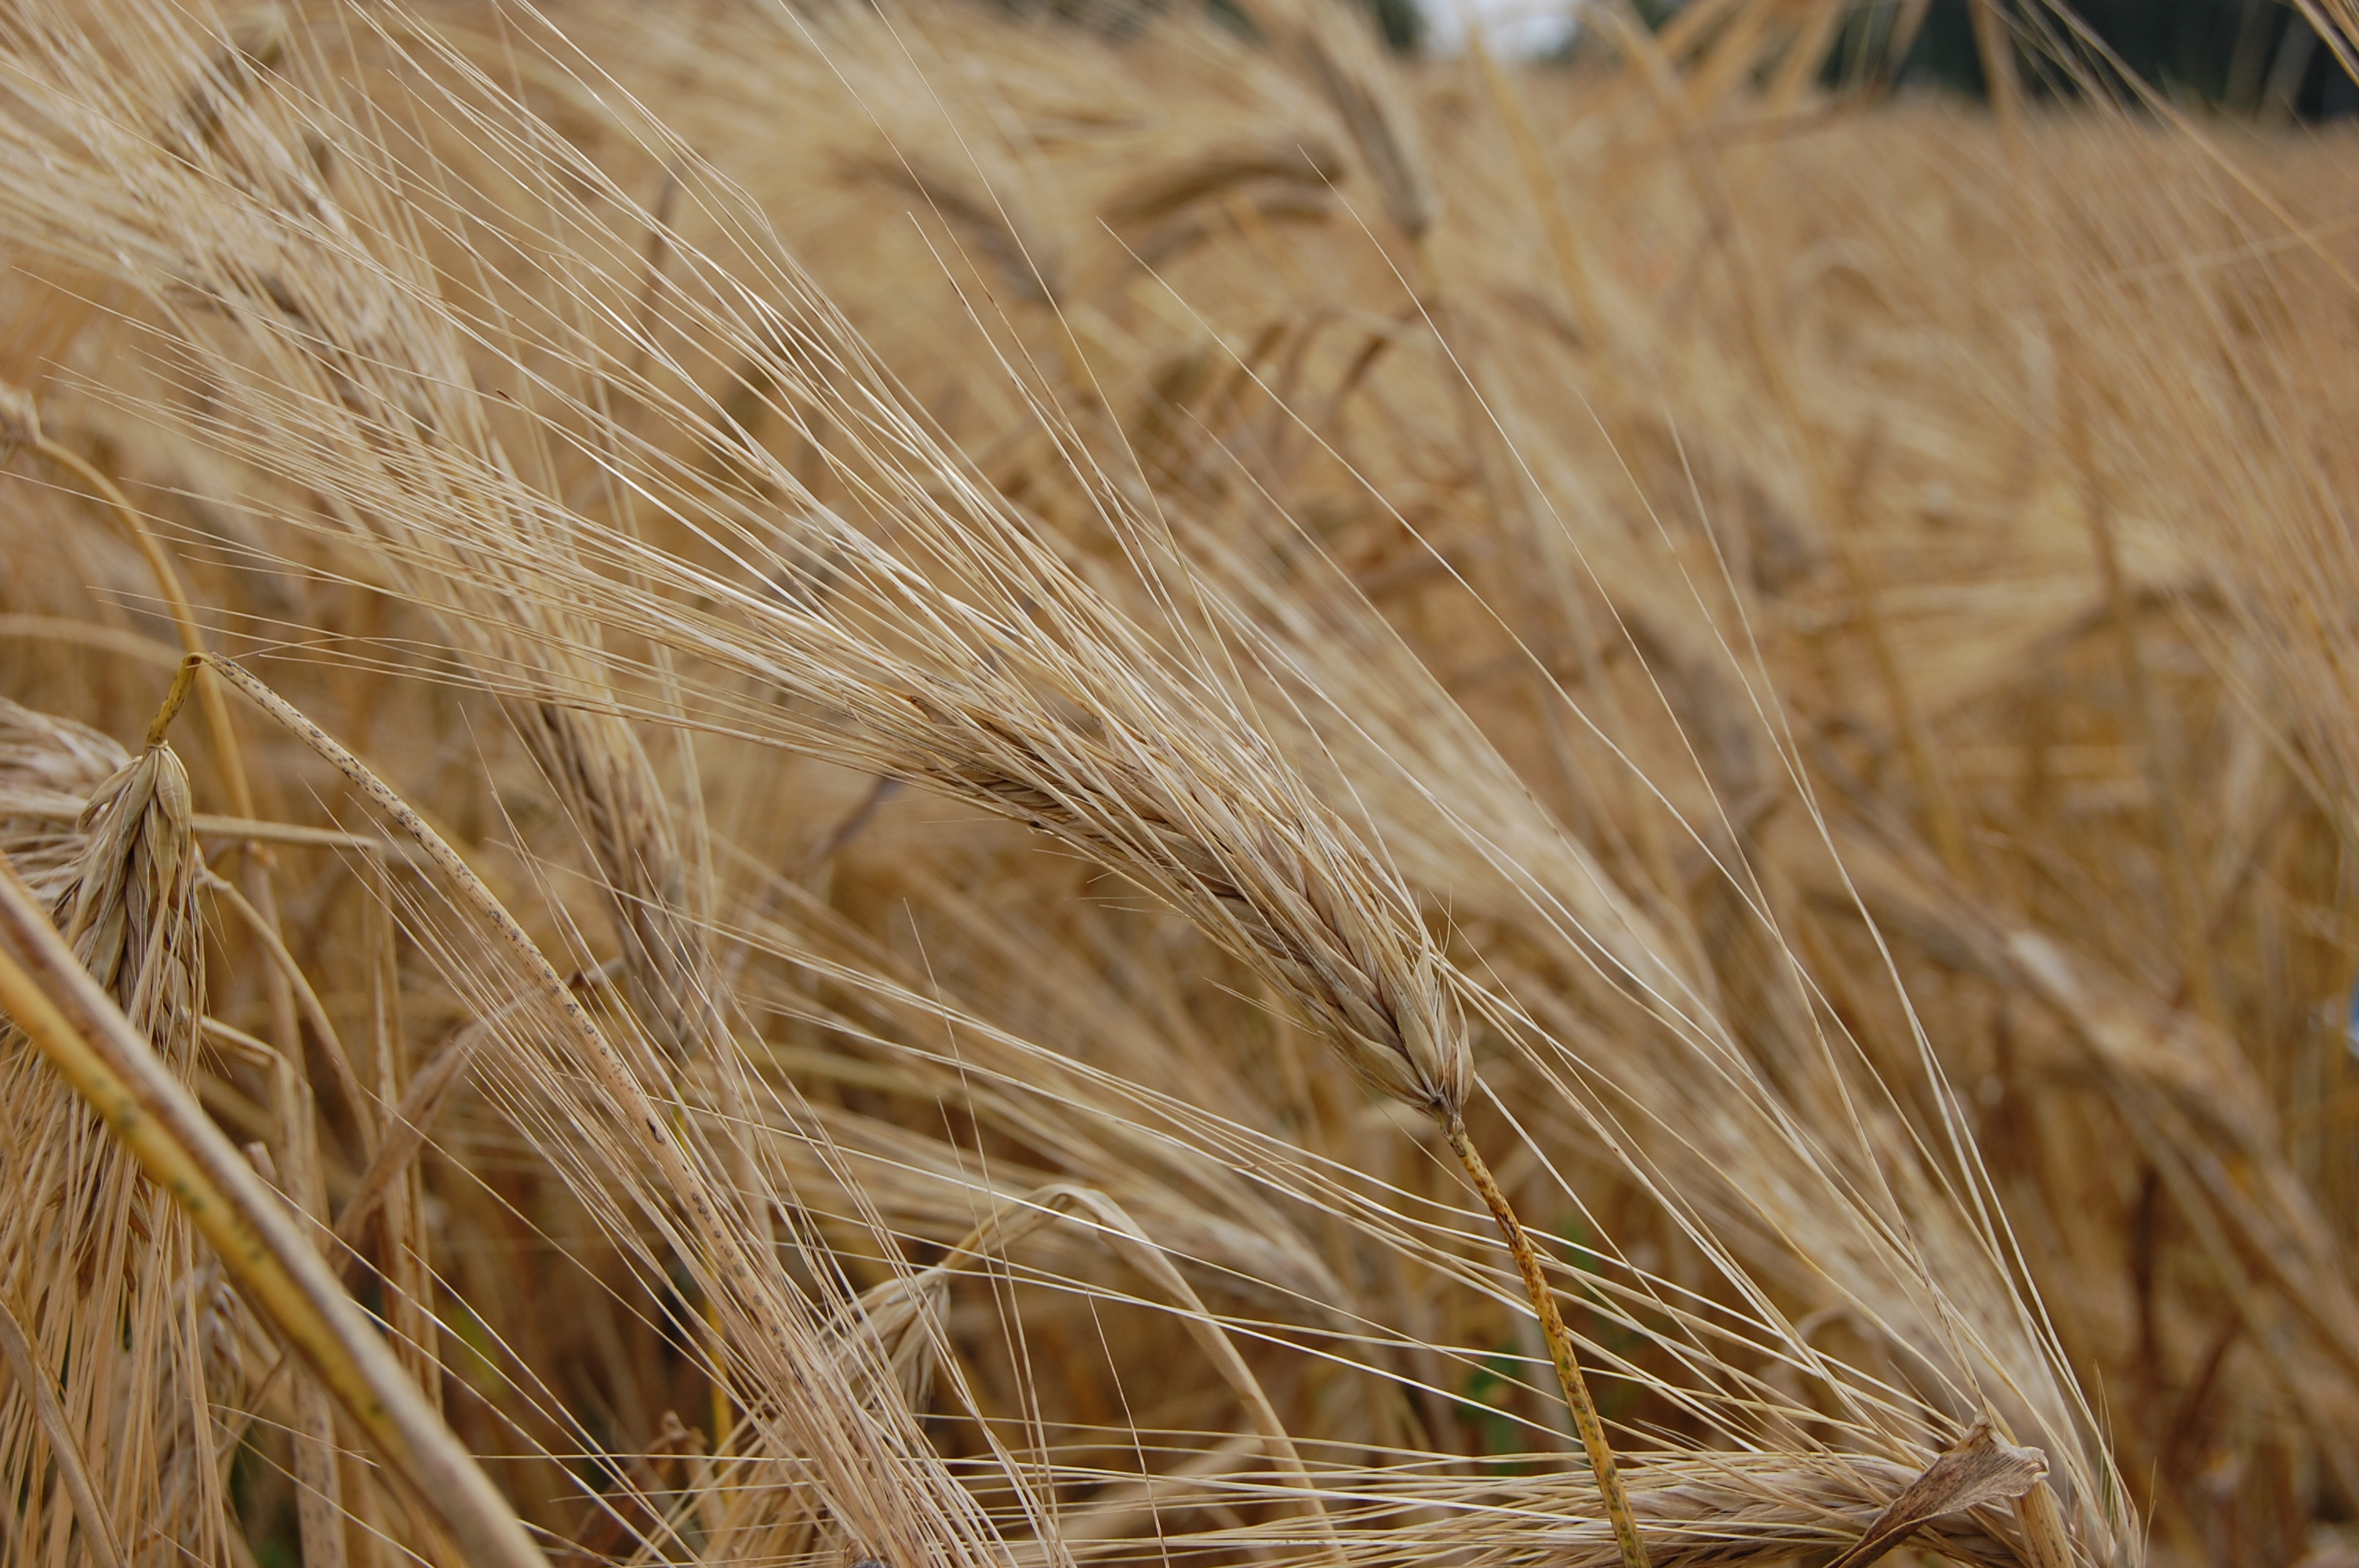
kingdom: Plantae
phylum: Tracheophyta
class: Liliopsida
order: Poales
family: Poaceae
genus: Hordeum
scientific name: Hordeum vulgare
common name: Common barley
